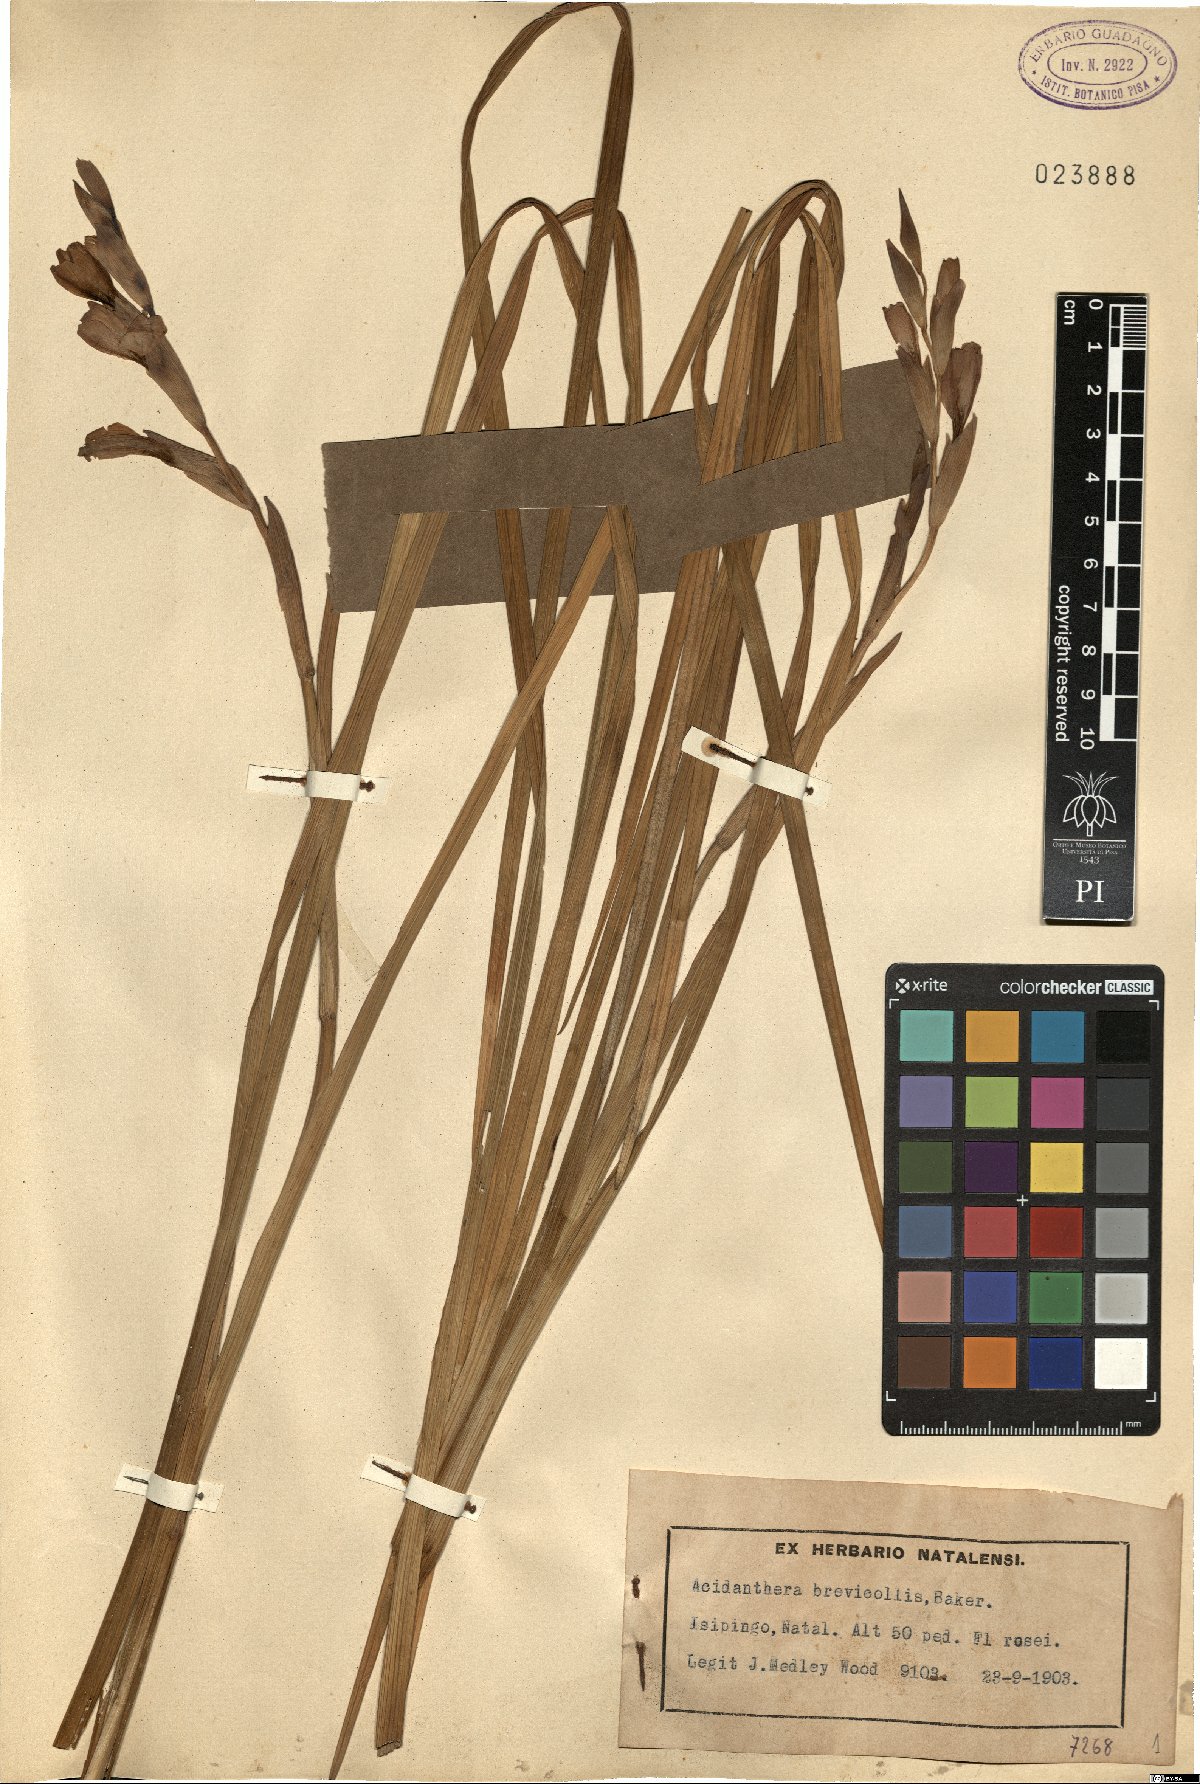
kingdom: Plantae
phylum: Tracheophyta
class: Liliopsida
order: Asparagales
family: Iridaceae
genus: Gladiolus
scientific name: Gladiolus gueinzii
